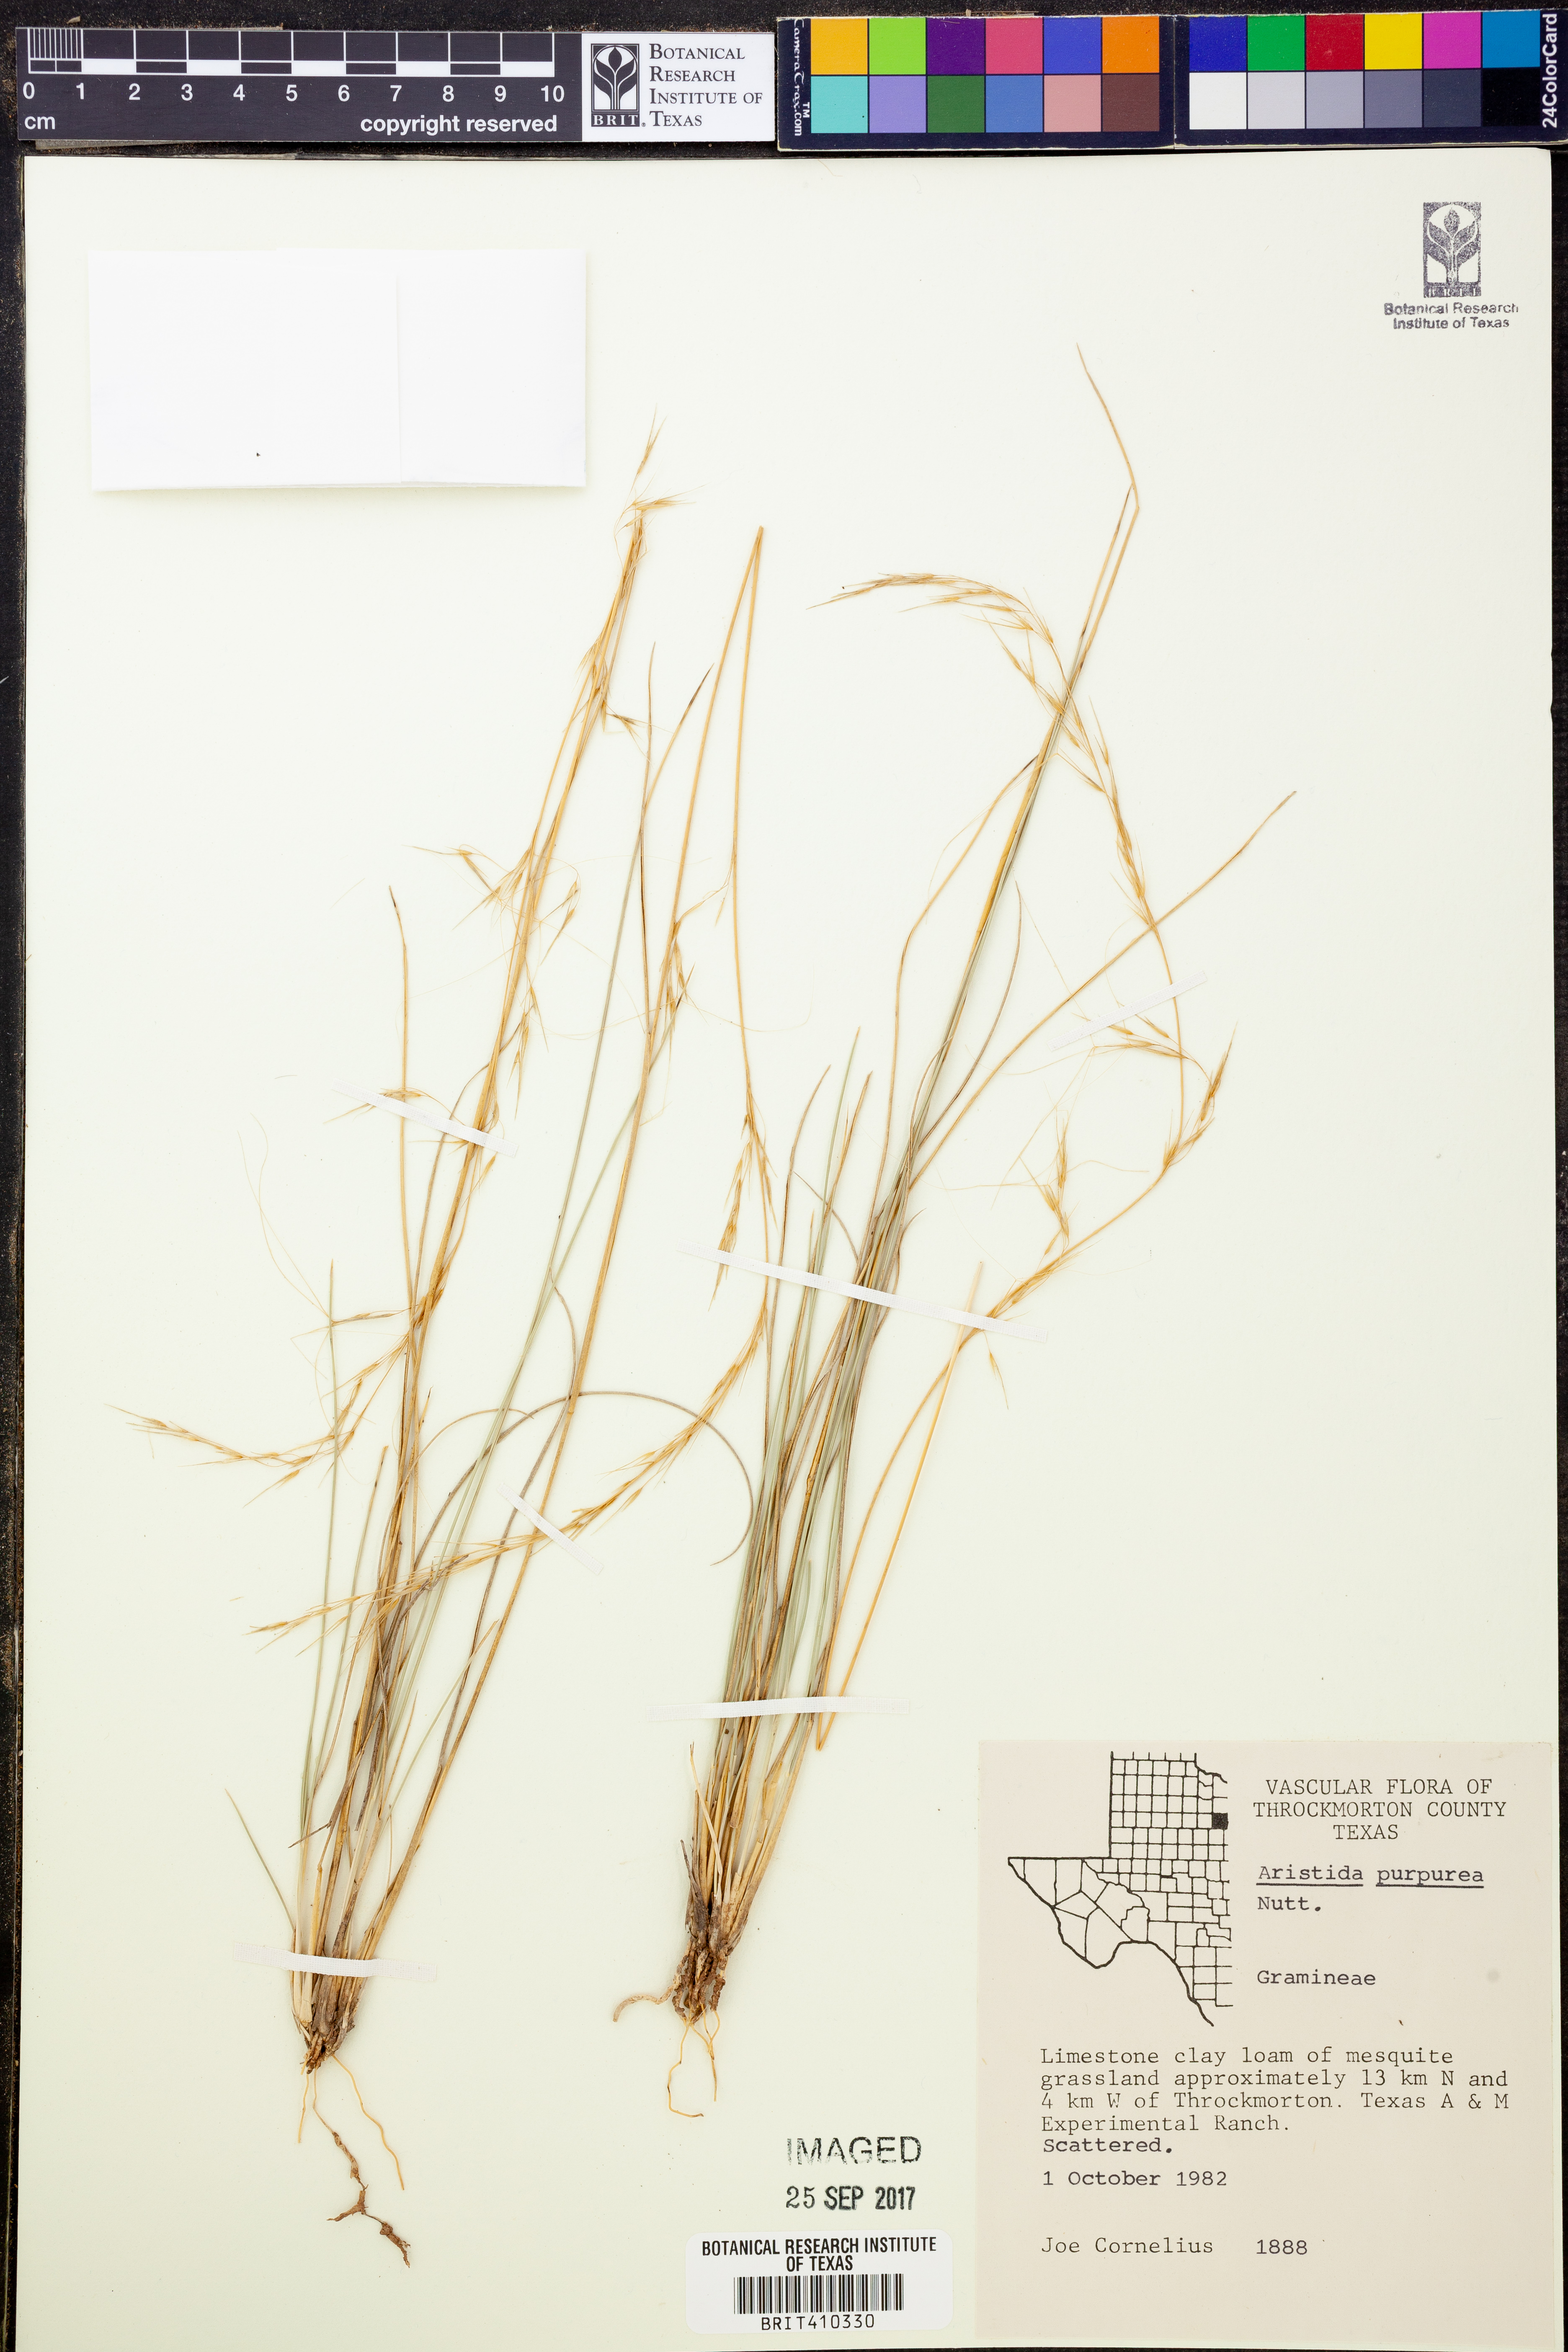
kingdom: Plantae
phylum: Tracheophyta
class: Liliopsida
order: Poales
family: Poaceae
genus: Aristida
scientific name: Aristida purpurea
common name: Purple threeawn
